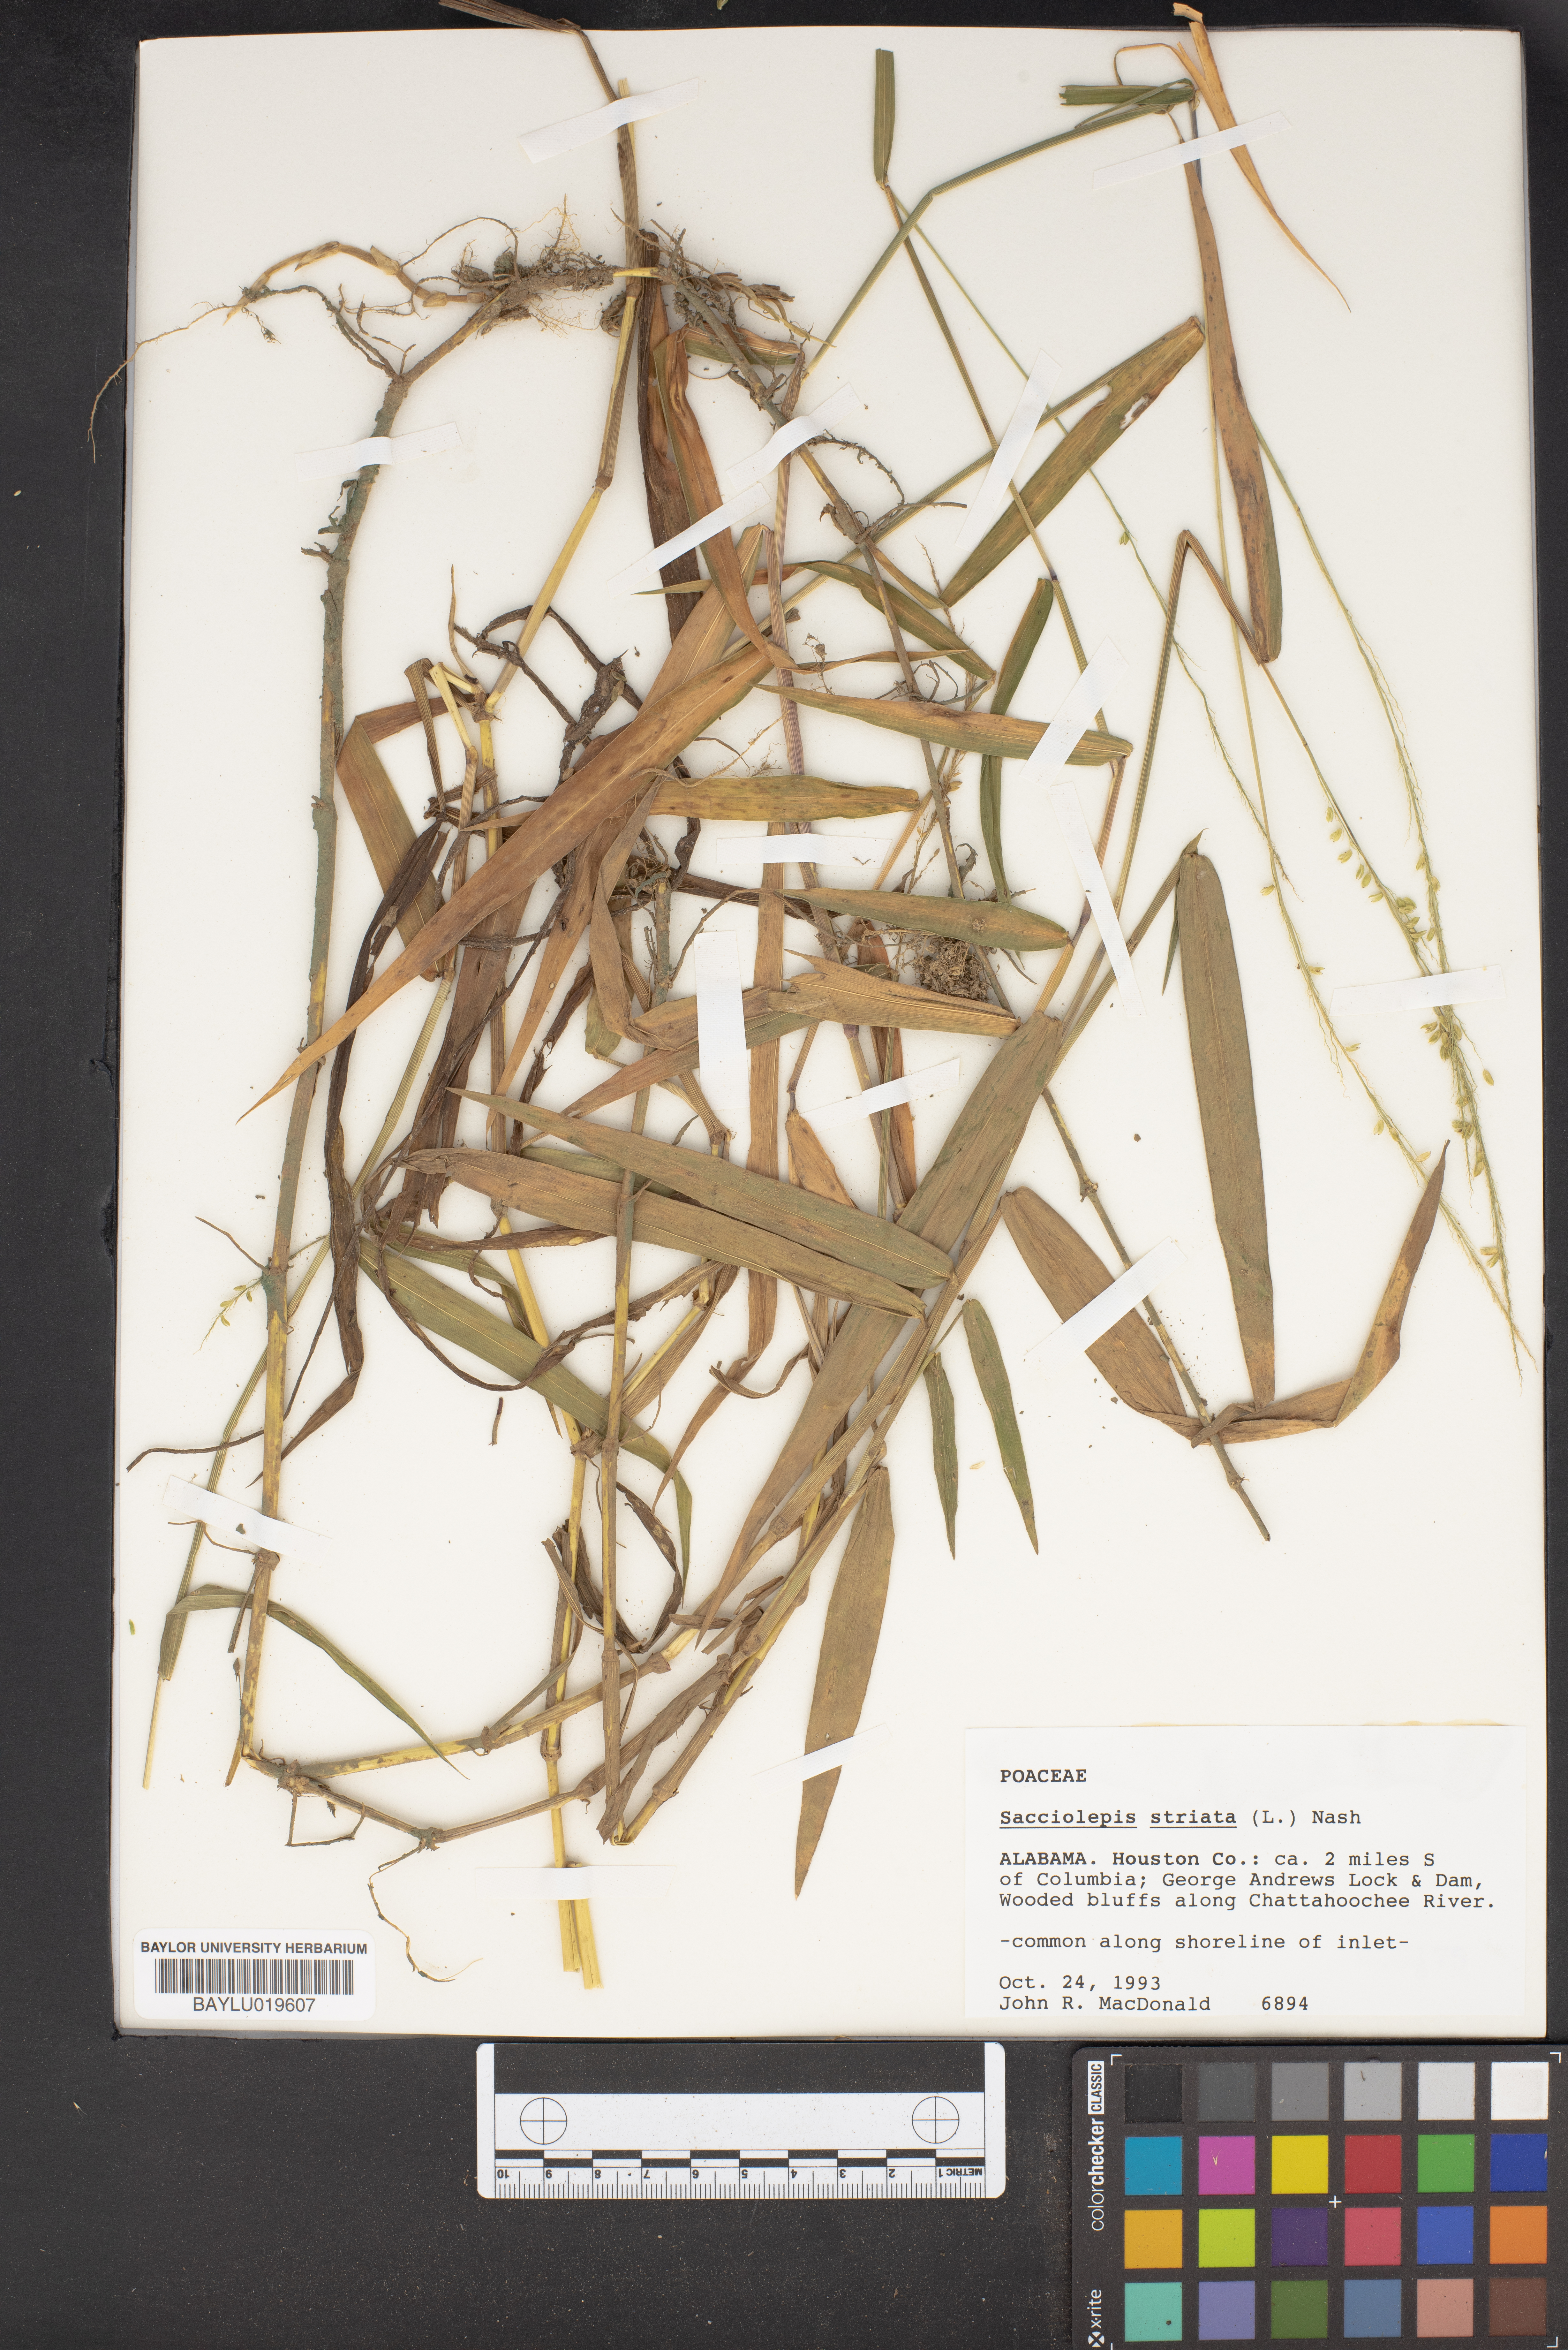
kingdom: Plantae
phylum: Tracheophyta
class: Liliopsida
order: Poales
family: Poaceae
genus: Sacciolepis
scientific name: Sacciolepis striata
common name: American cupscale
